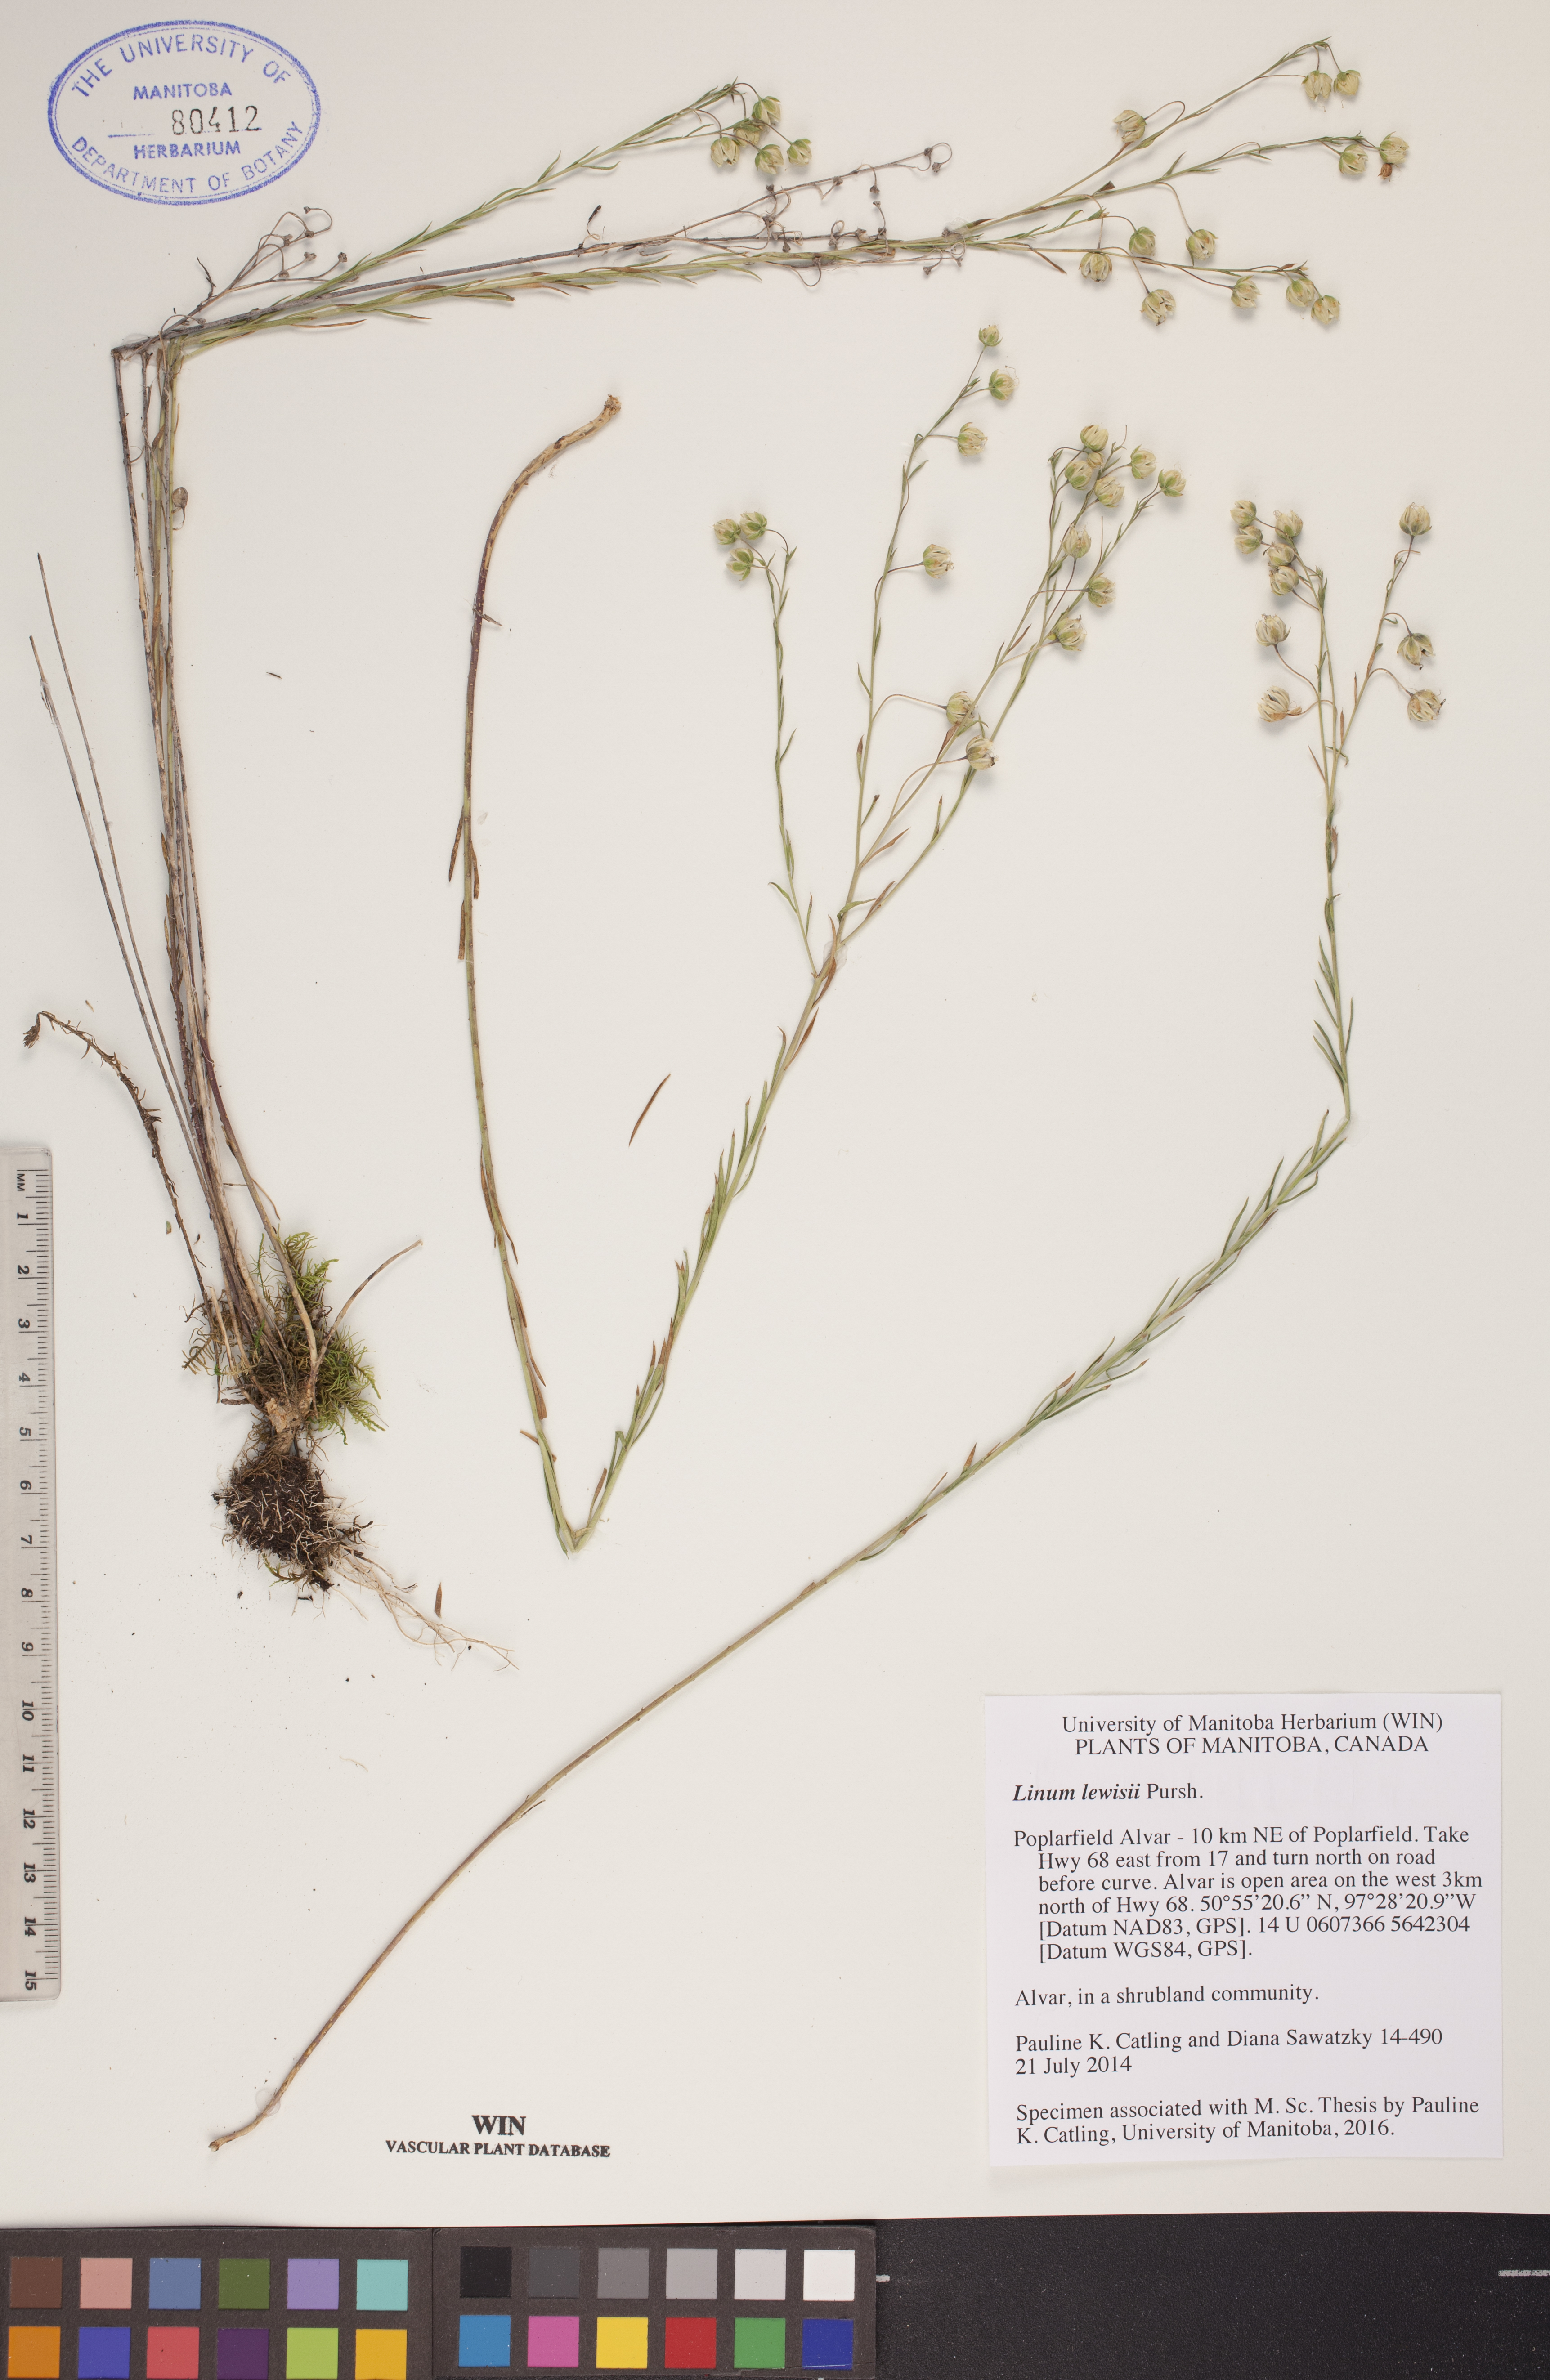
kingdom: Plantae
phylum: Tracheophyta
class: Magnoliopsida
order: Malpighiales
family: Linaceae
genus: Linum
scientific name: Linum lewisii
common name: Prairie flax
